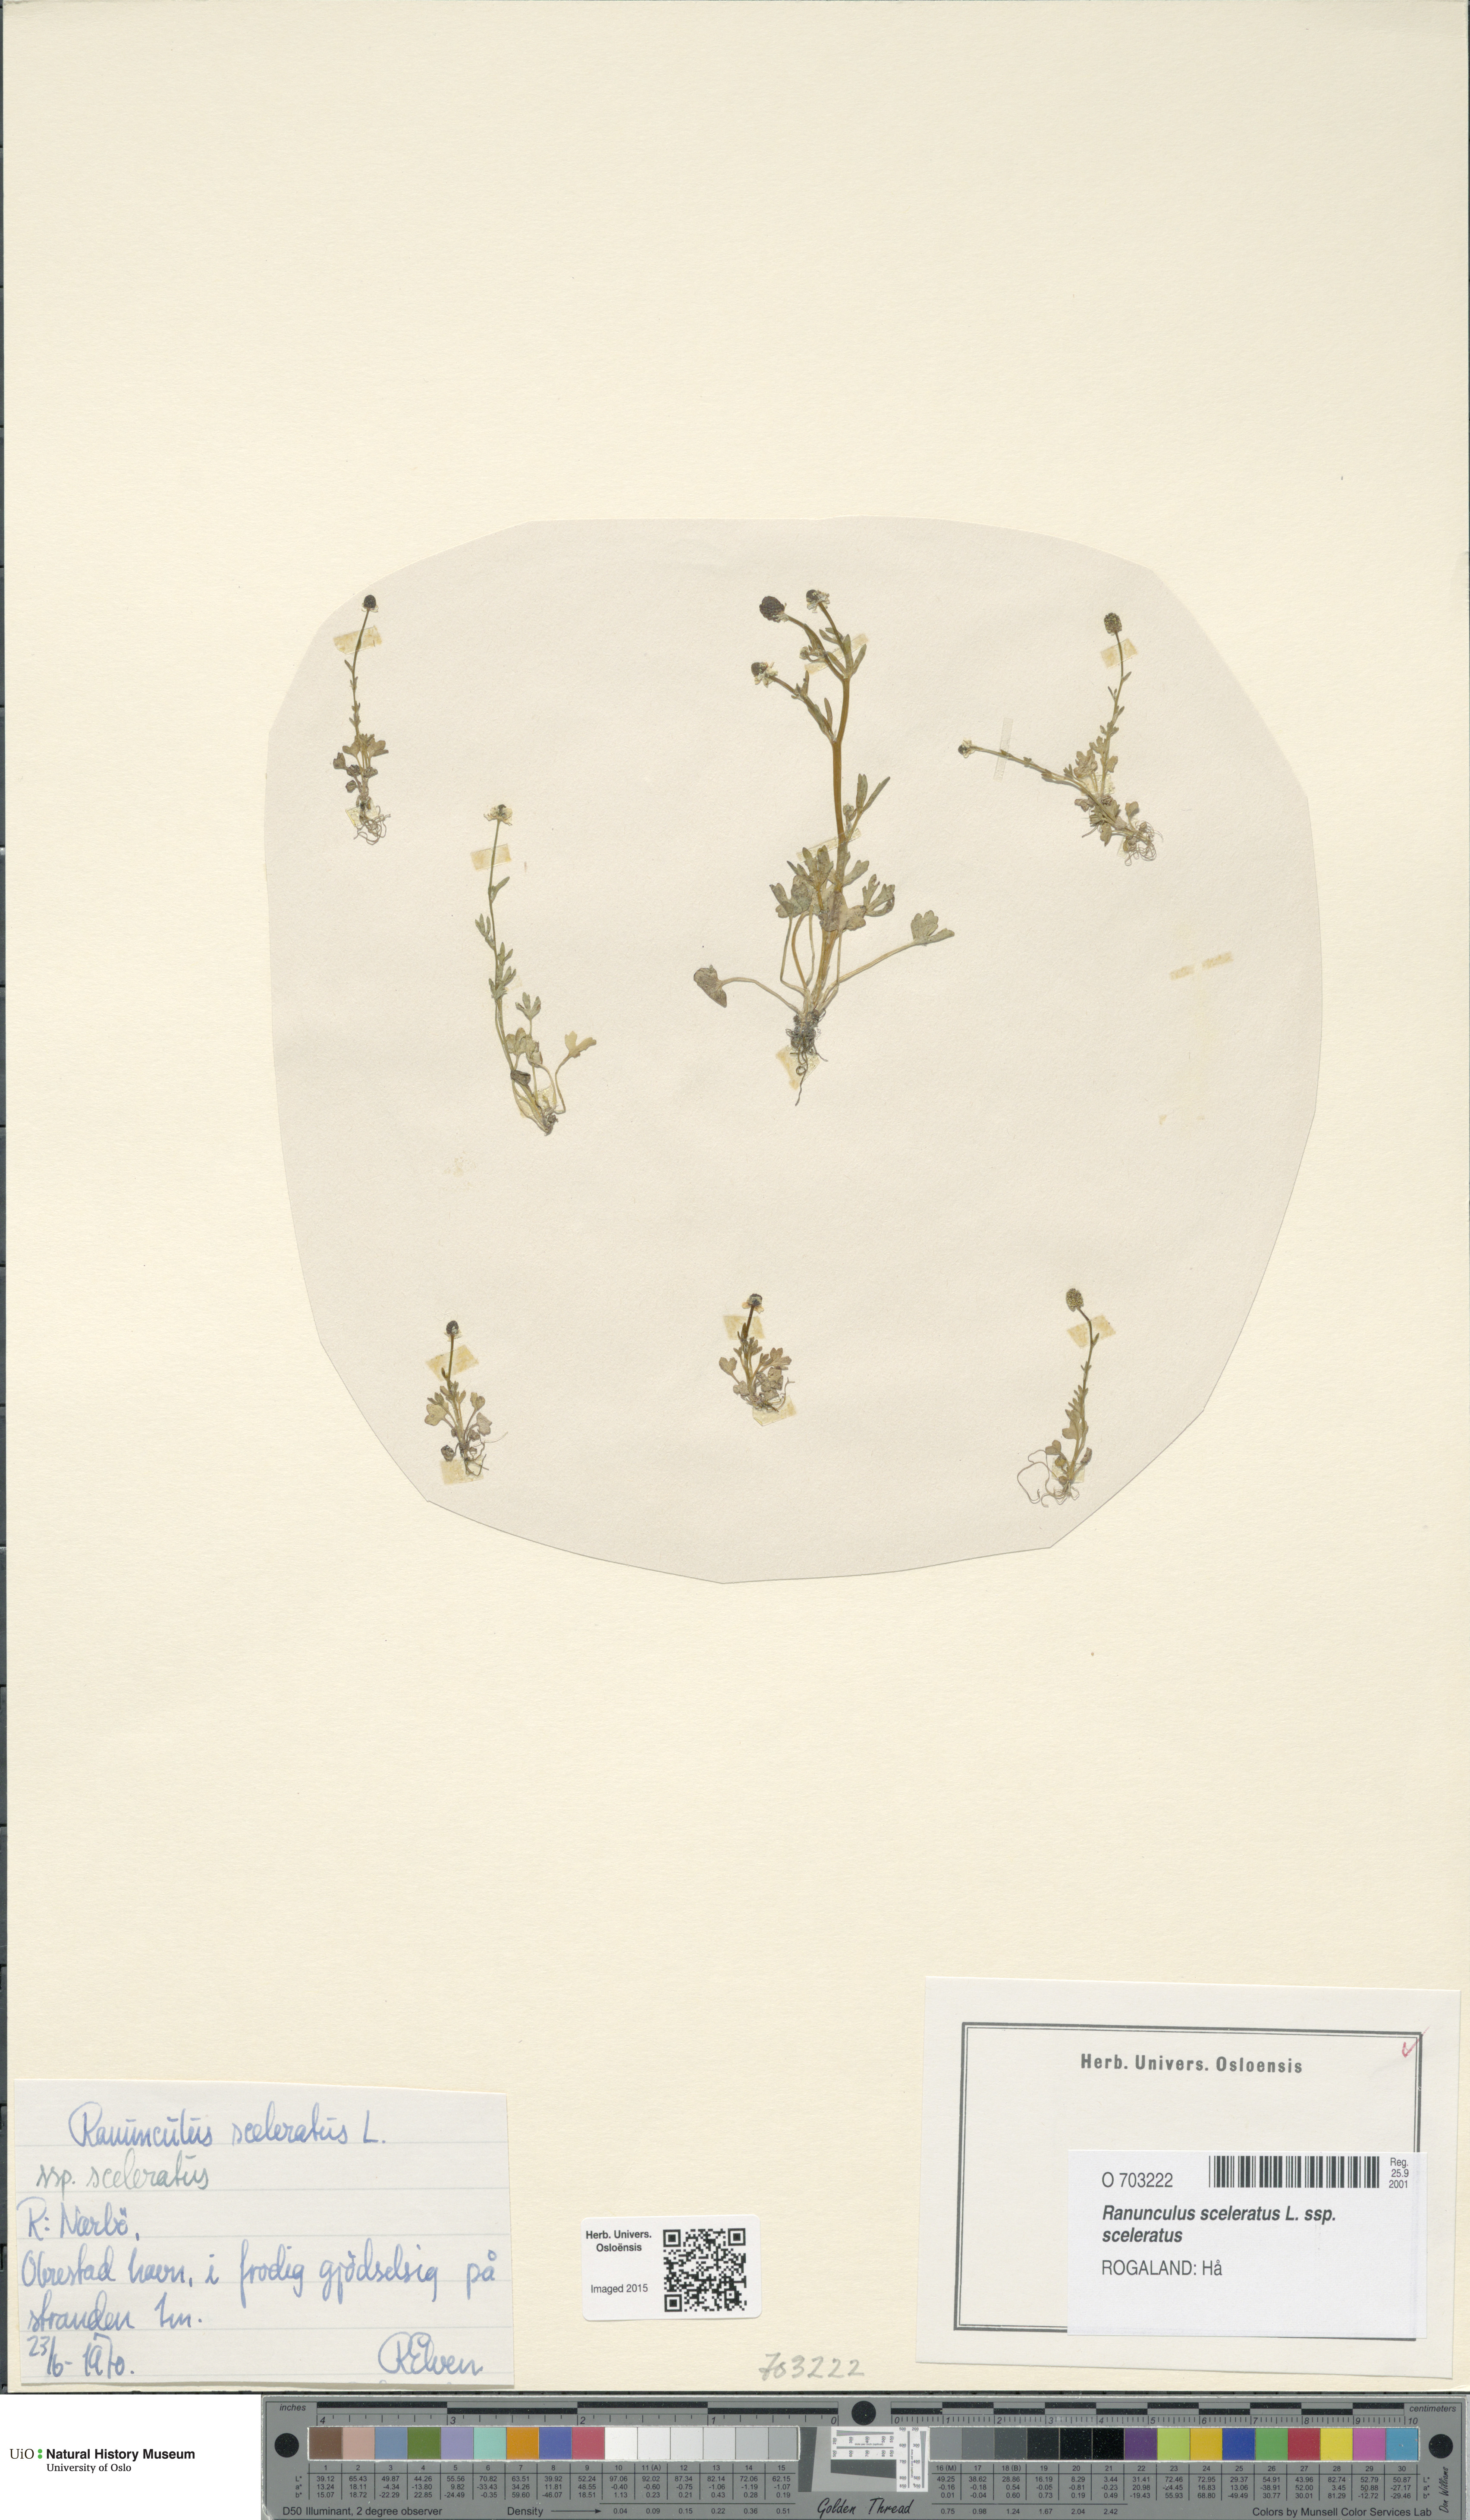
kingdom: Plantae
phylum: Tracheophyta
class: Magnoliopsida
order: Ranunculales
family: Ranunculaceae
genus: Ranunculus
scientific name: Ranunculus sceleratus
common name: Celery-leaved buttercup
